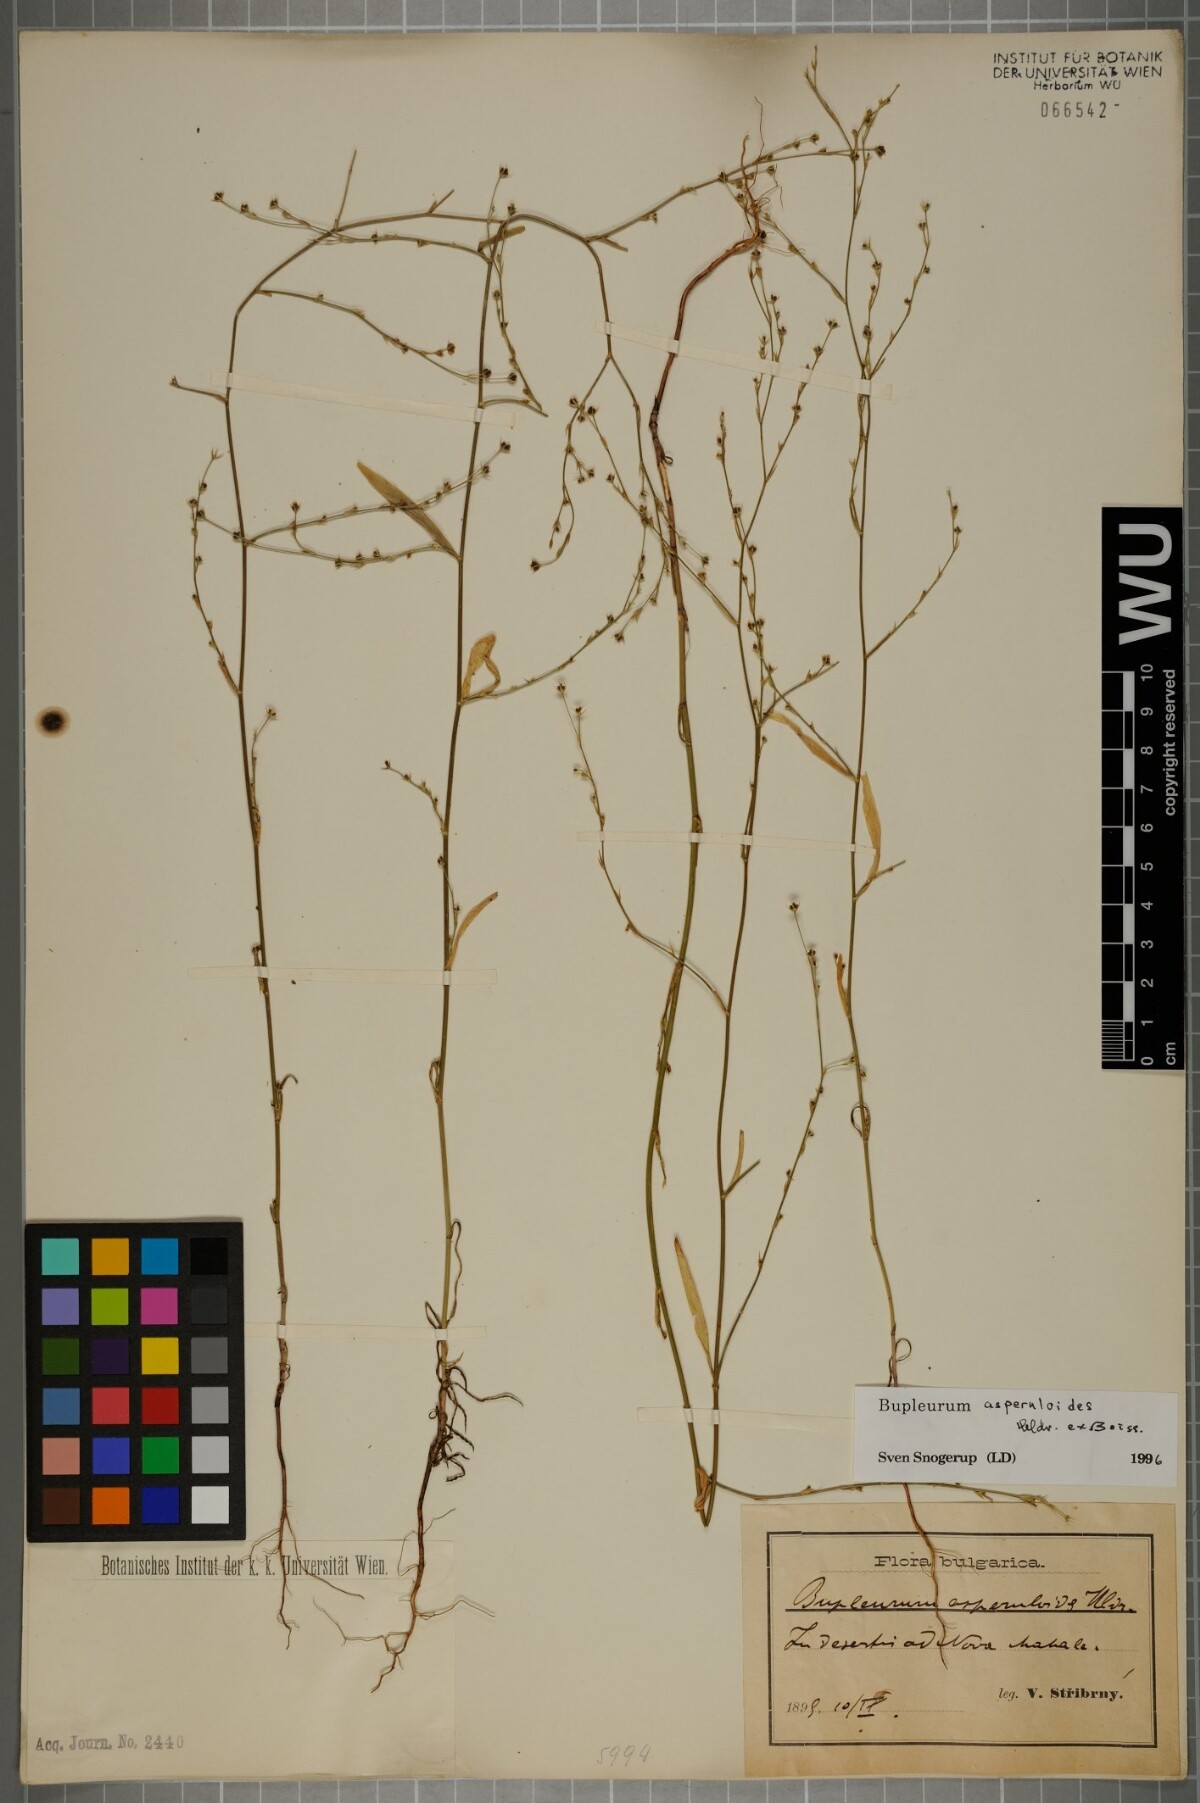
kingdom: Plantae
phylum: Tracheophyta
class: Magnoliopsida
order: Apiales
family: Apiaceae
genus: Bupleurum
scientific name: Bupleurum asperuloides
